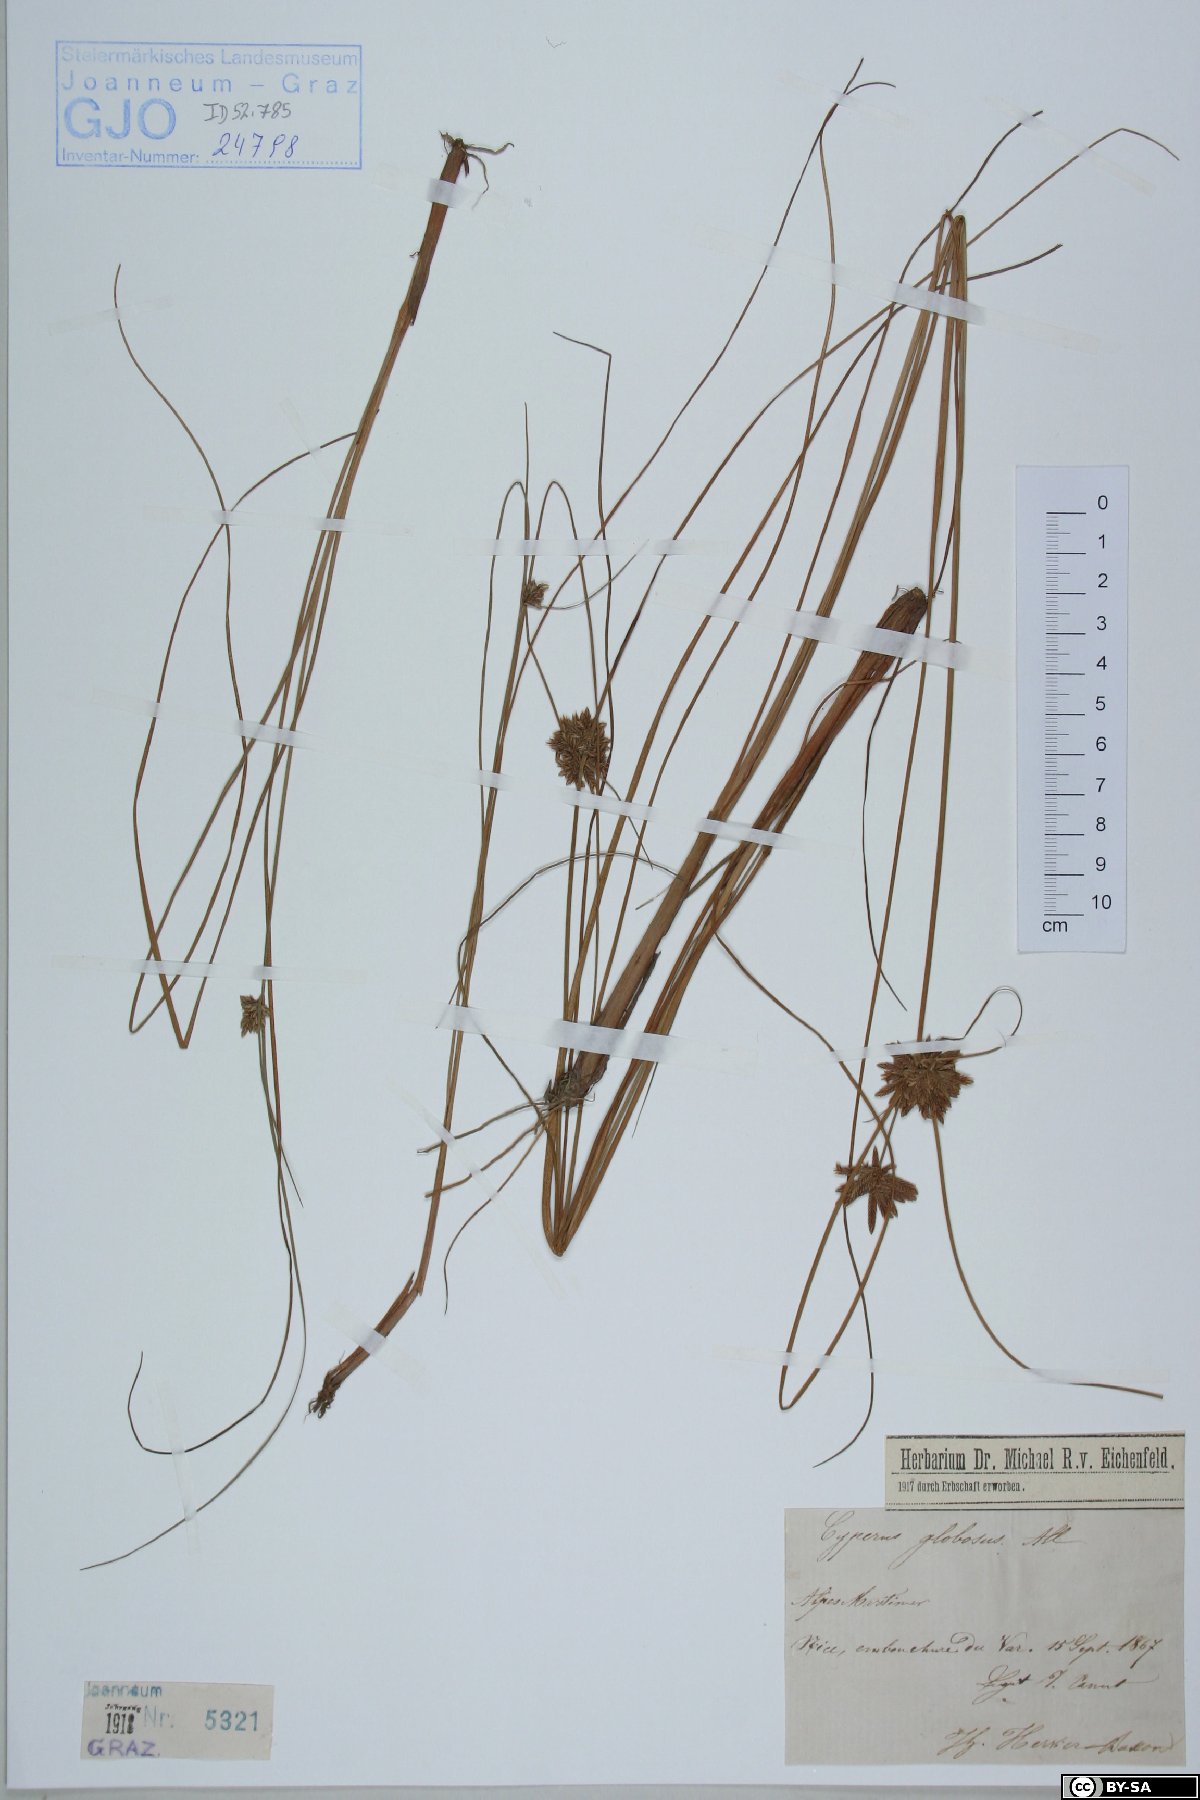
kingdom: Plantae
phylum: Tracheophyta
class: Liliopsida
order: Poales
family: Cyperaceae
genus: Cyperus
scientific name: Cyperus flavidus
